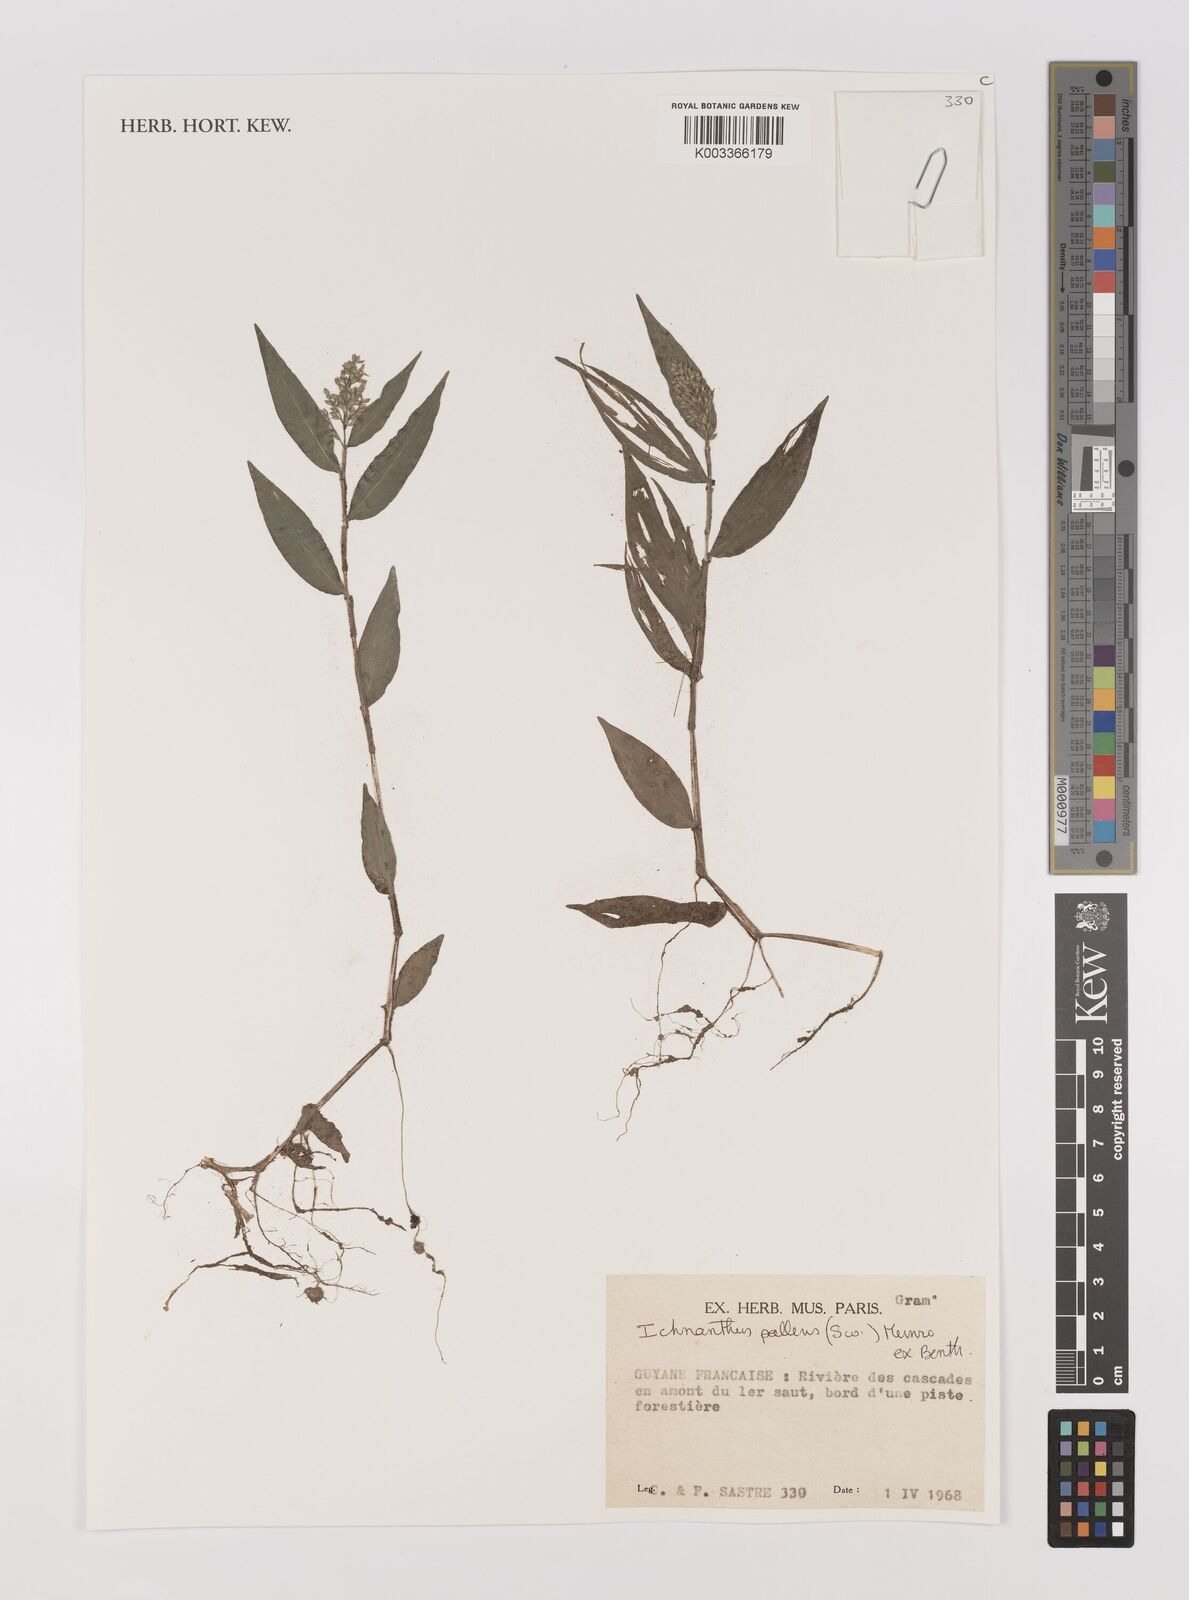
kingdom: Plantae
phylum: Tracheophyta
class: Liliopsida
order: Poales
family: Poaceae
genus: Ichnanthus
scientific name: Ichnanthus pallens
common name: Water grass
